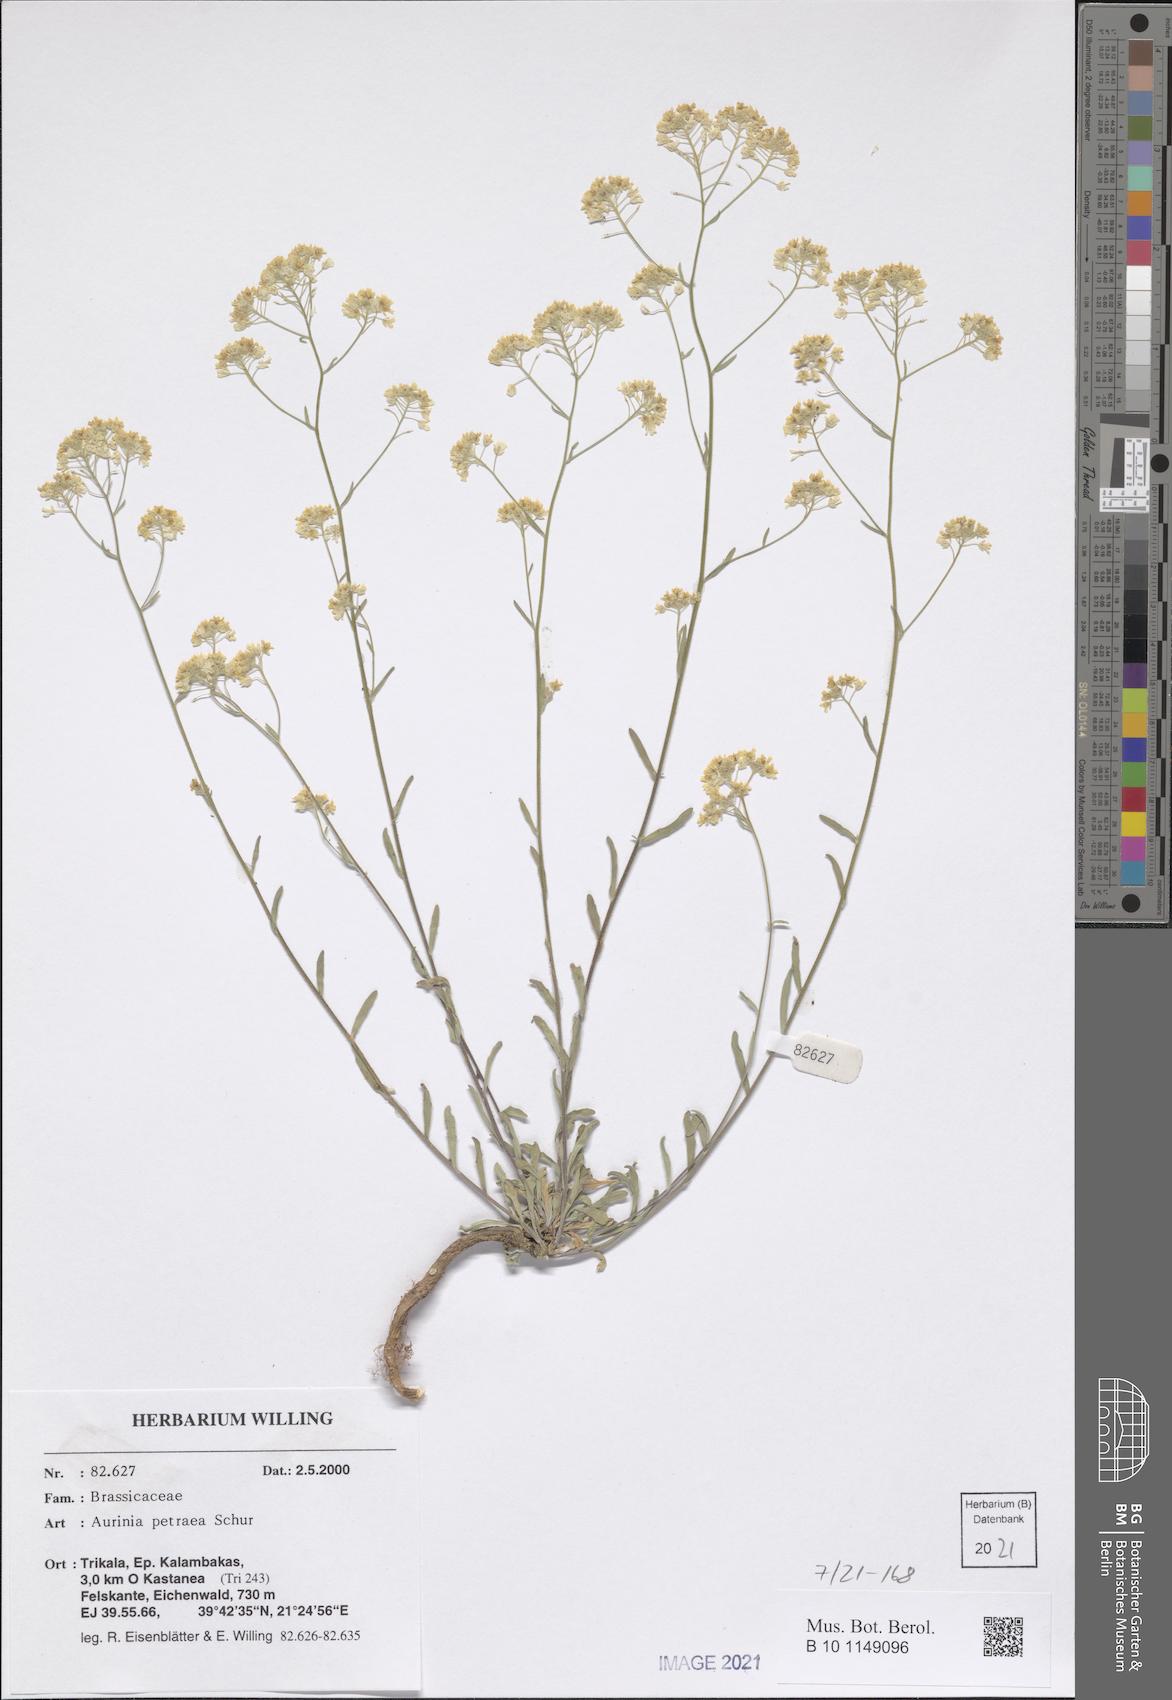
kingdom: Plantae
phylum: Tracheophyta
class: Magnoliopsida
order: Brassicales
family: Brassicaceae
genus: Aurinia
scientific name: Aurinia petraea
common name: Goldentuft
